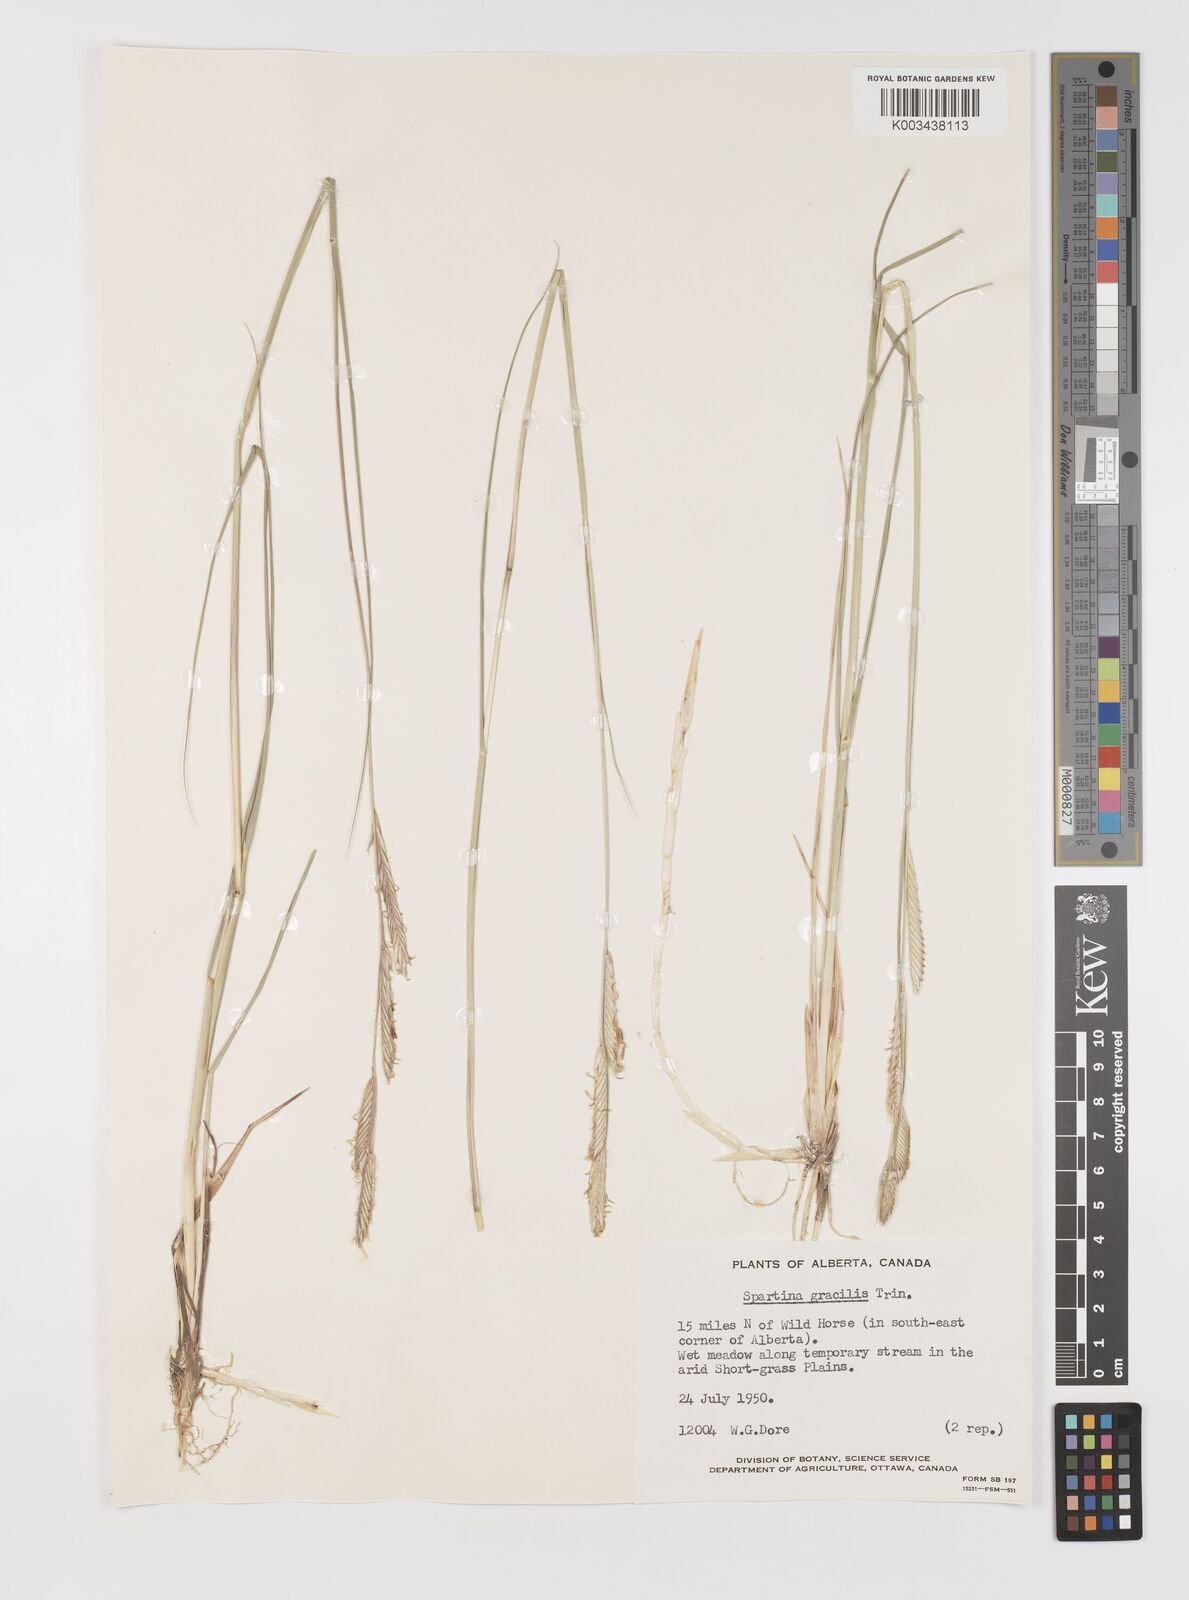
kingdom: Plantae
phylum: Tracheophyta
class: Liliopsida
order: Poales
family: Poaceae
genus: Sporobolus
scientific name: Sporobolus hookerianus
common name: Alkali cordgrass
